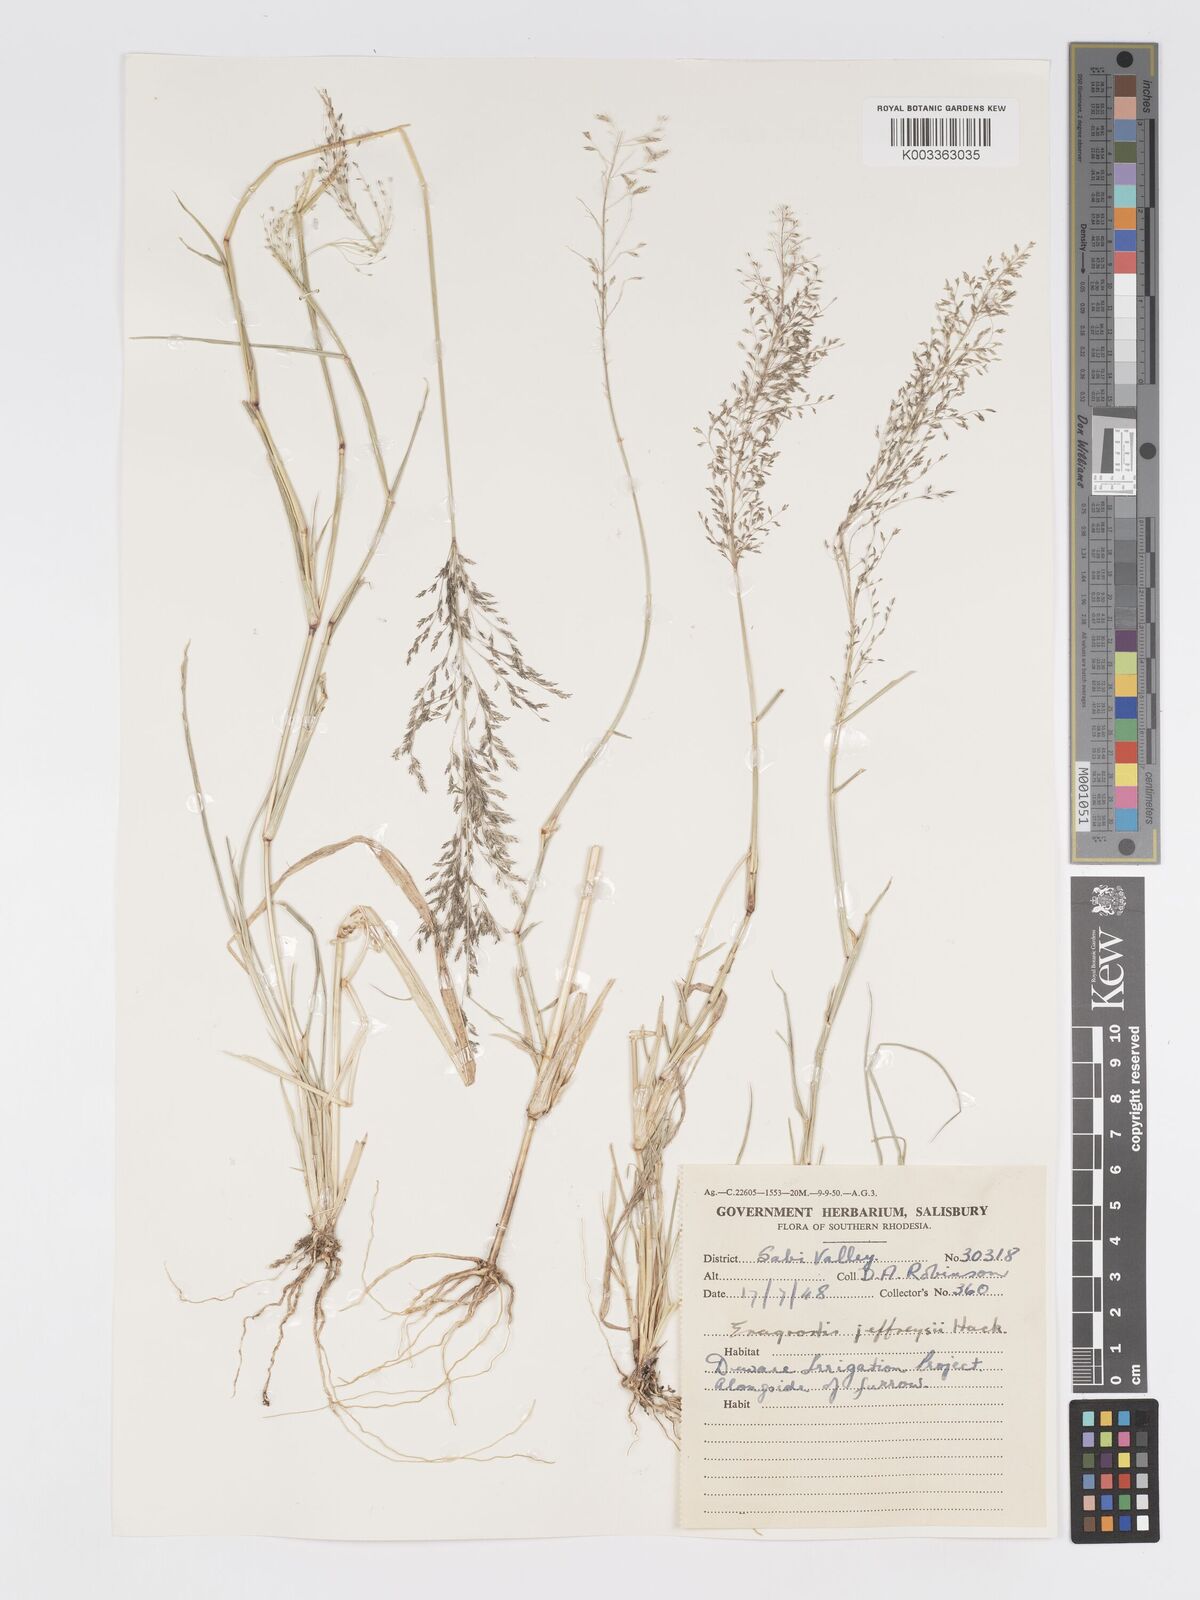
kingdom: Plantae
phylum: Tracheophyta
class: Liliopsida
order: Poales
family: Poaceae
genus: Eragrostis
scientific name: Eragrostis cylindriflora
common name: Cylinderflower lovegrass
